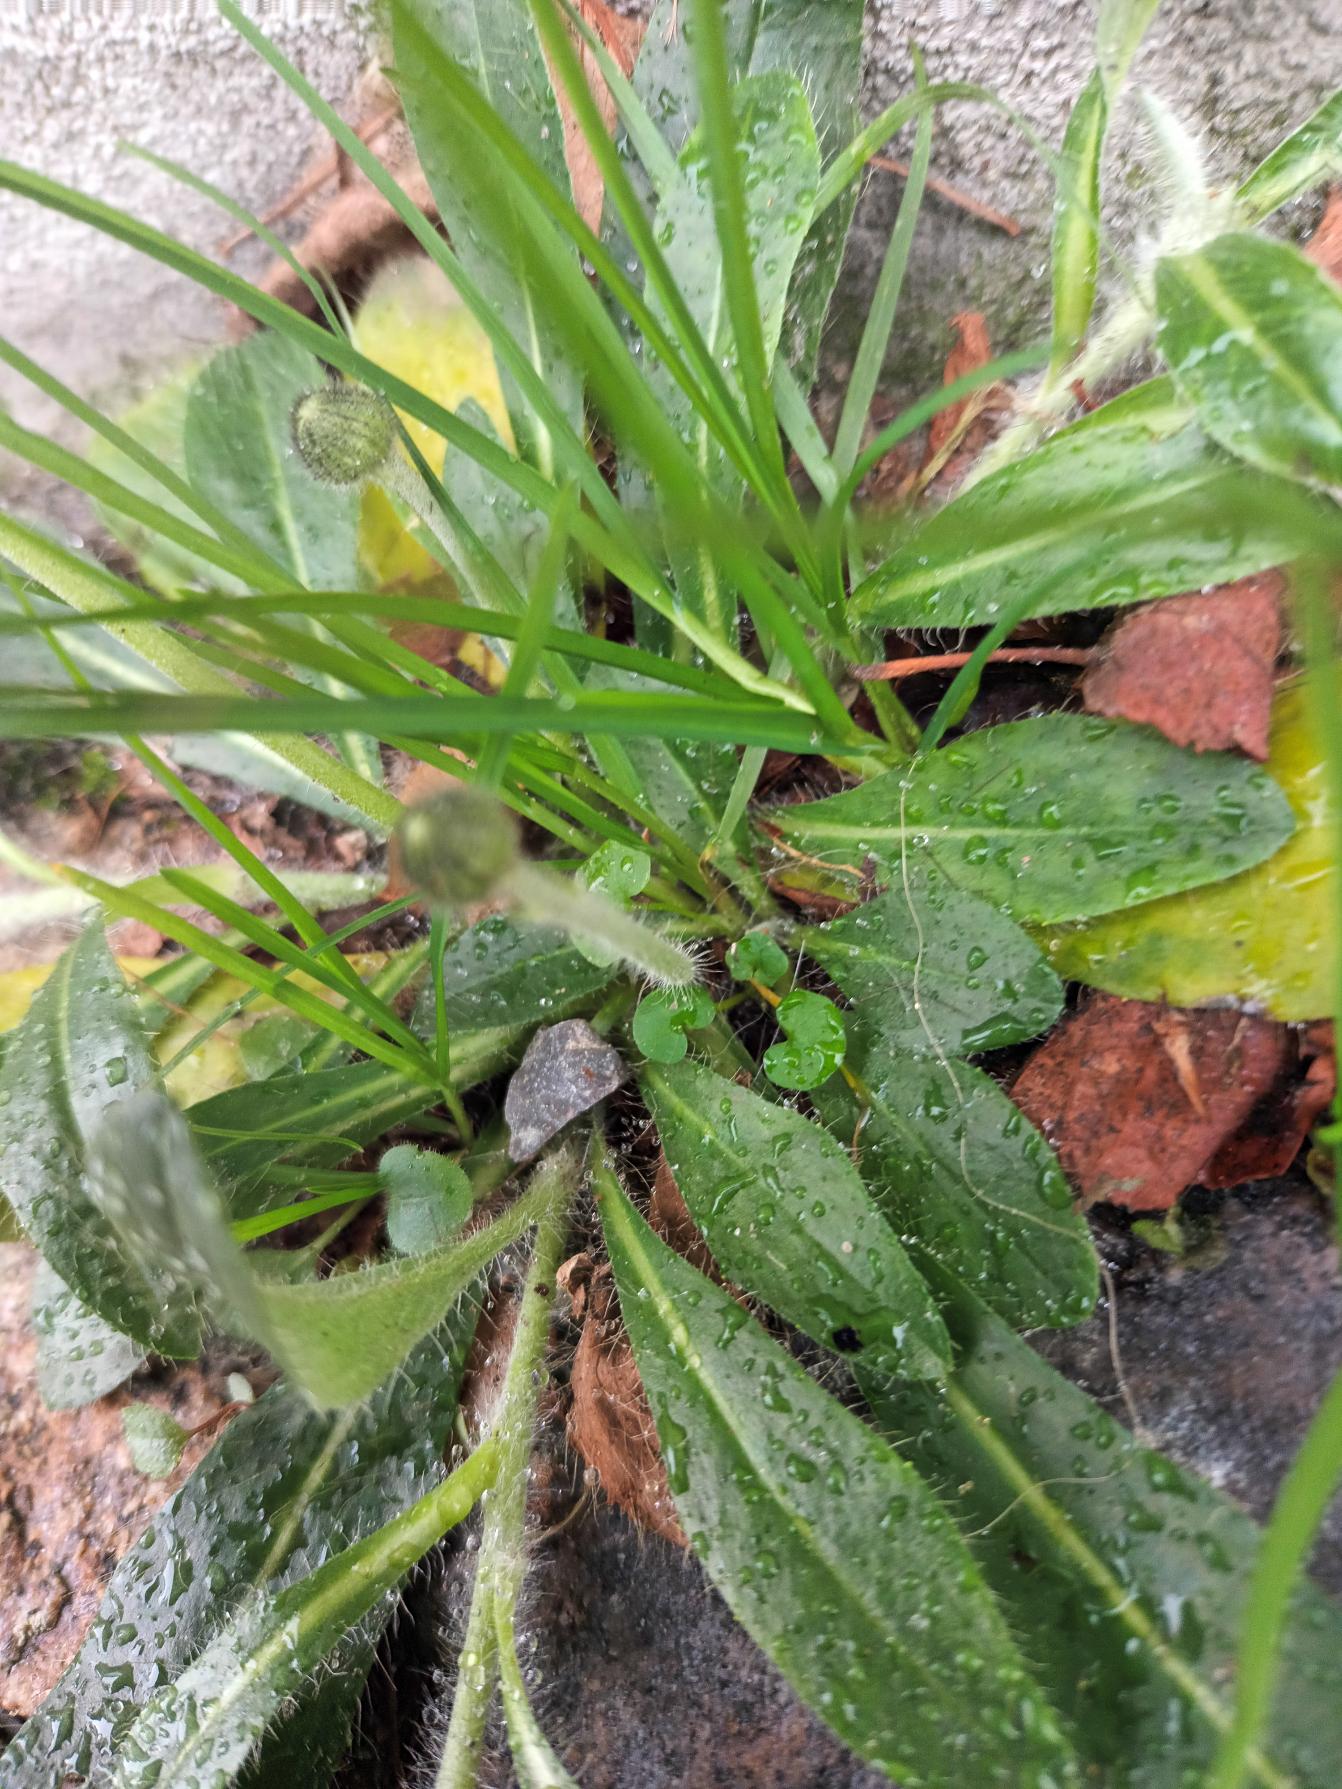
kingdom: Plantae
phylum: Tracheophyta
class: Magnoliopsida
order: Asterales
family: Asteraceae
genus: Pilosella
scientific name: Pilosella officinarum
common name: Håret høgeurt
